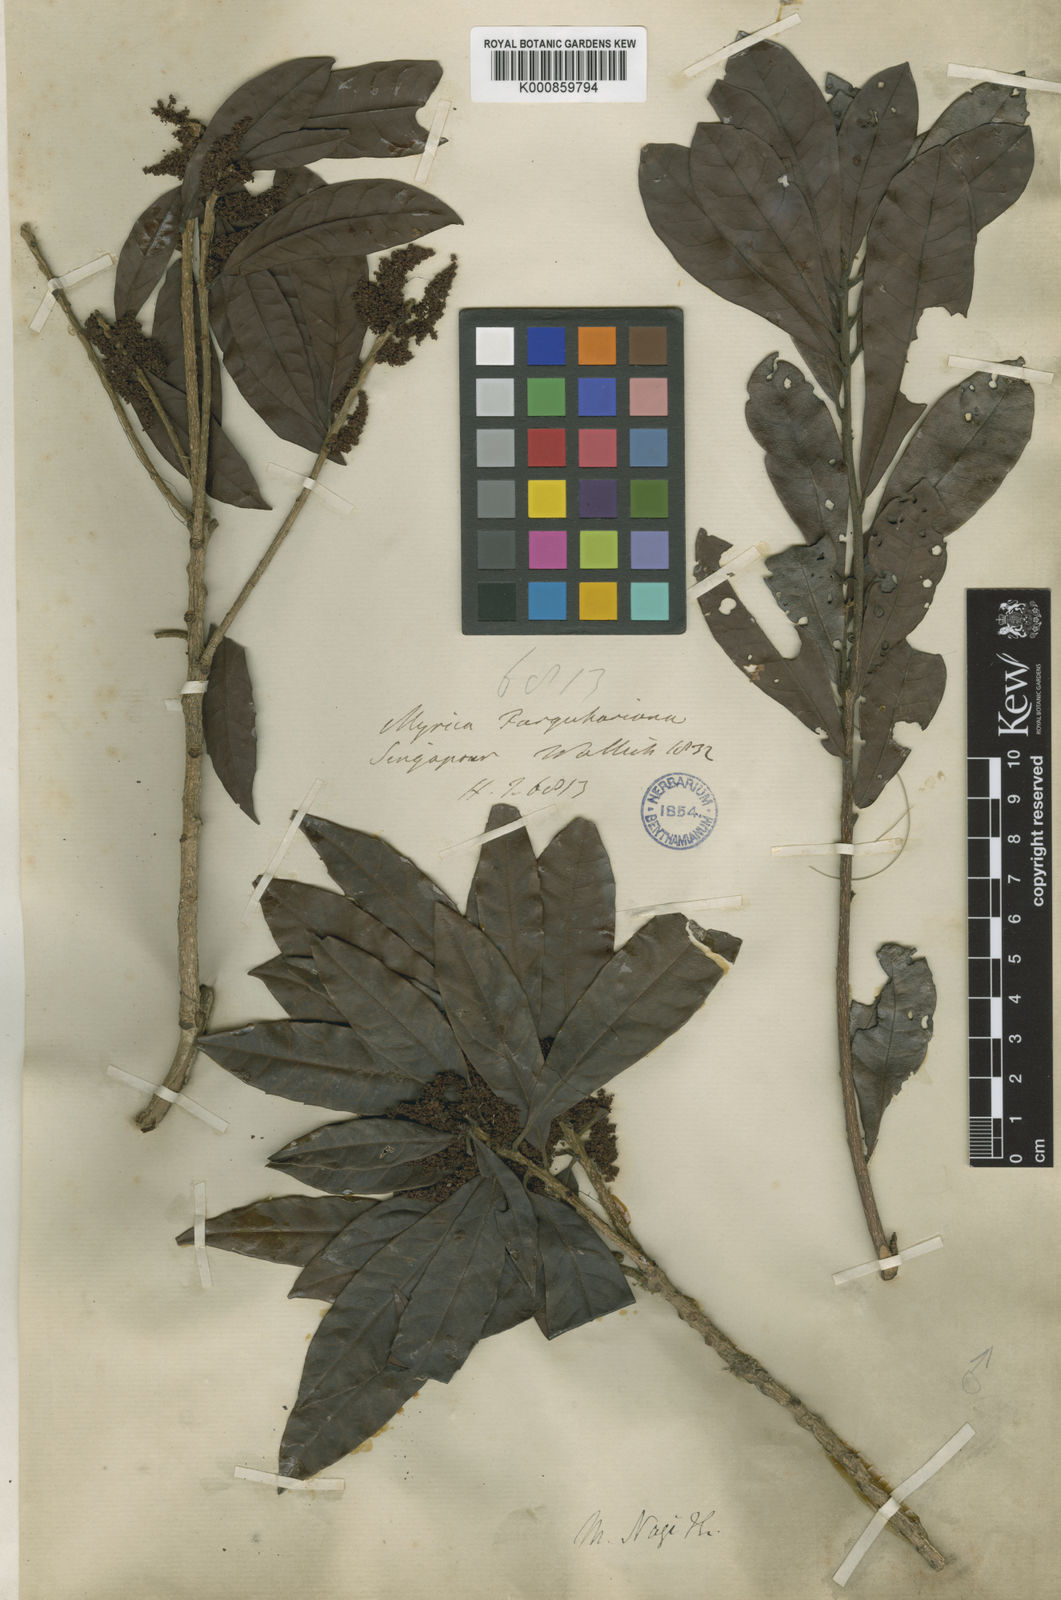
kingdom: Plantae
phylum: Tracheophyta
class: Magnoliopsida
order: Fagales
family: Myricaceae
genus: Morella
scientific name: Morella esculenta
